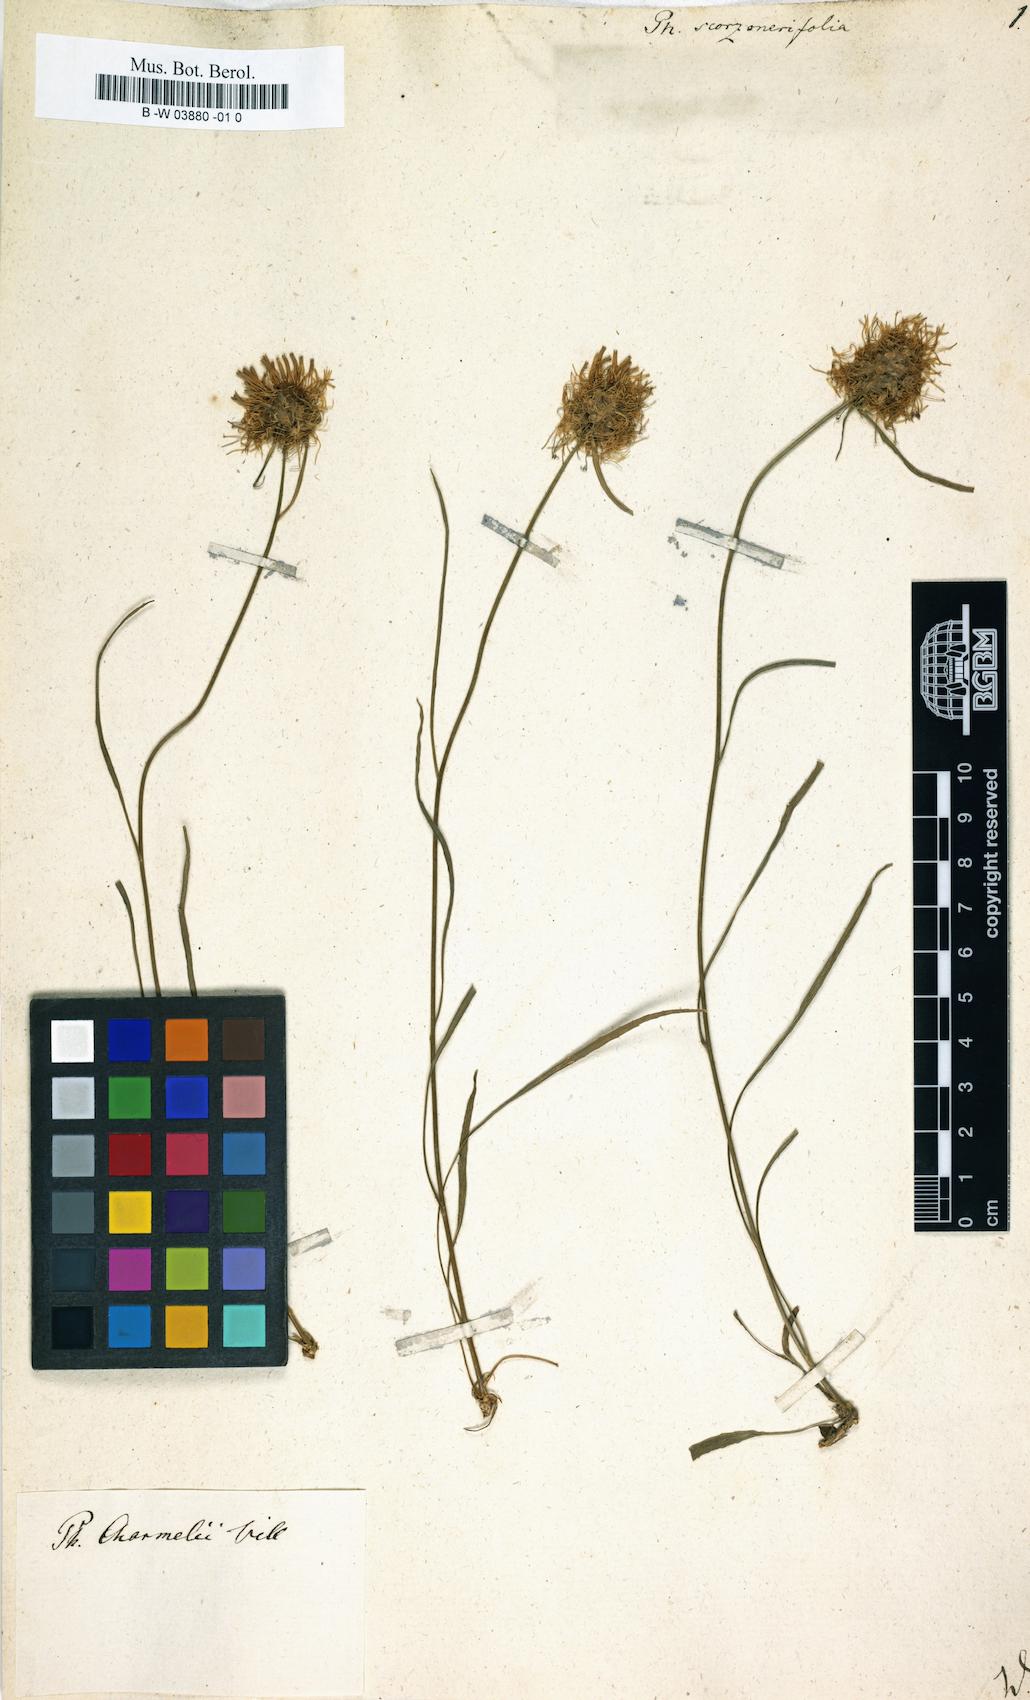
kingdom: Plantae
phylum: Tracheophyta
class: Magnoliopsida
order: Asterales
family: Campanulaceae
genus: Phyteuma
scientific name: Phyteuma scorzonerifolium
